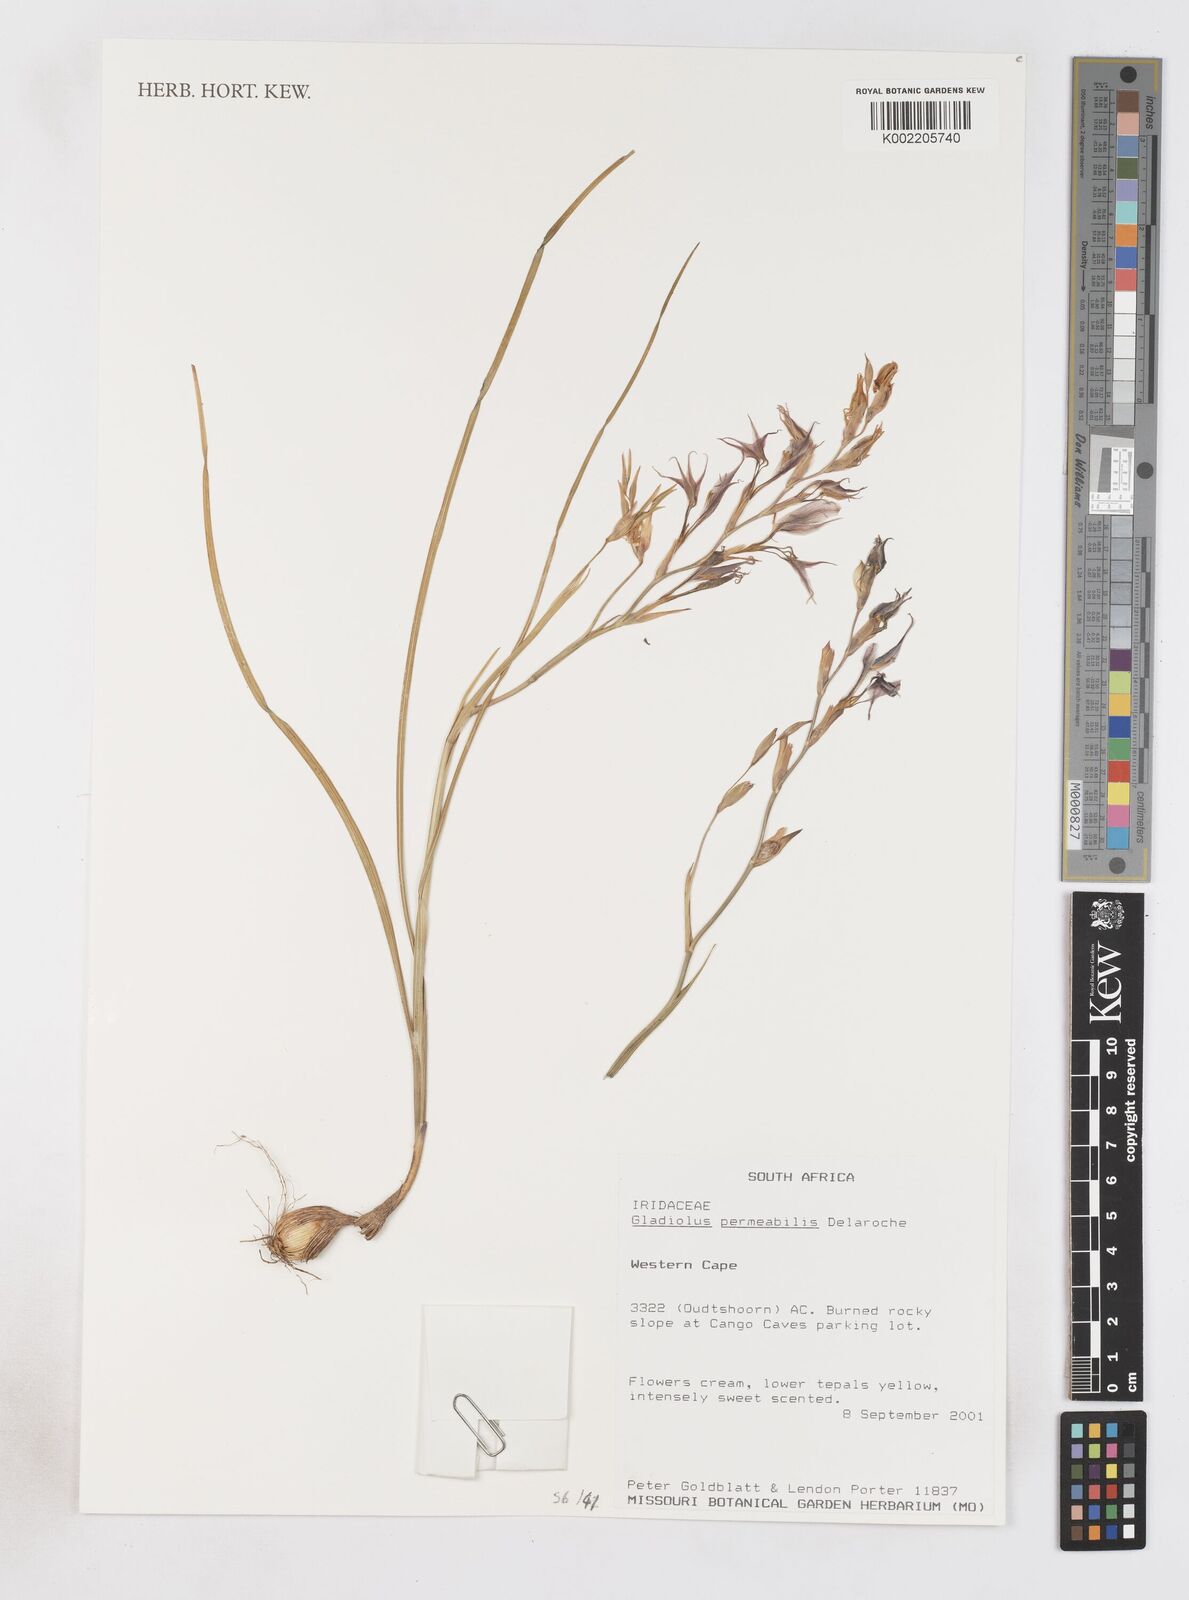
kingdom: Plantae
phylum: Tracheophyta
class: Liliopsida
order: Asparagales
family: Iridaceae
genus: Gladiolus
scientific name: Gladiolus permeabilis
